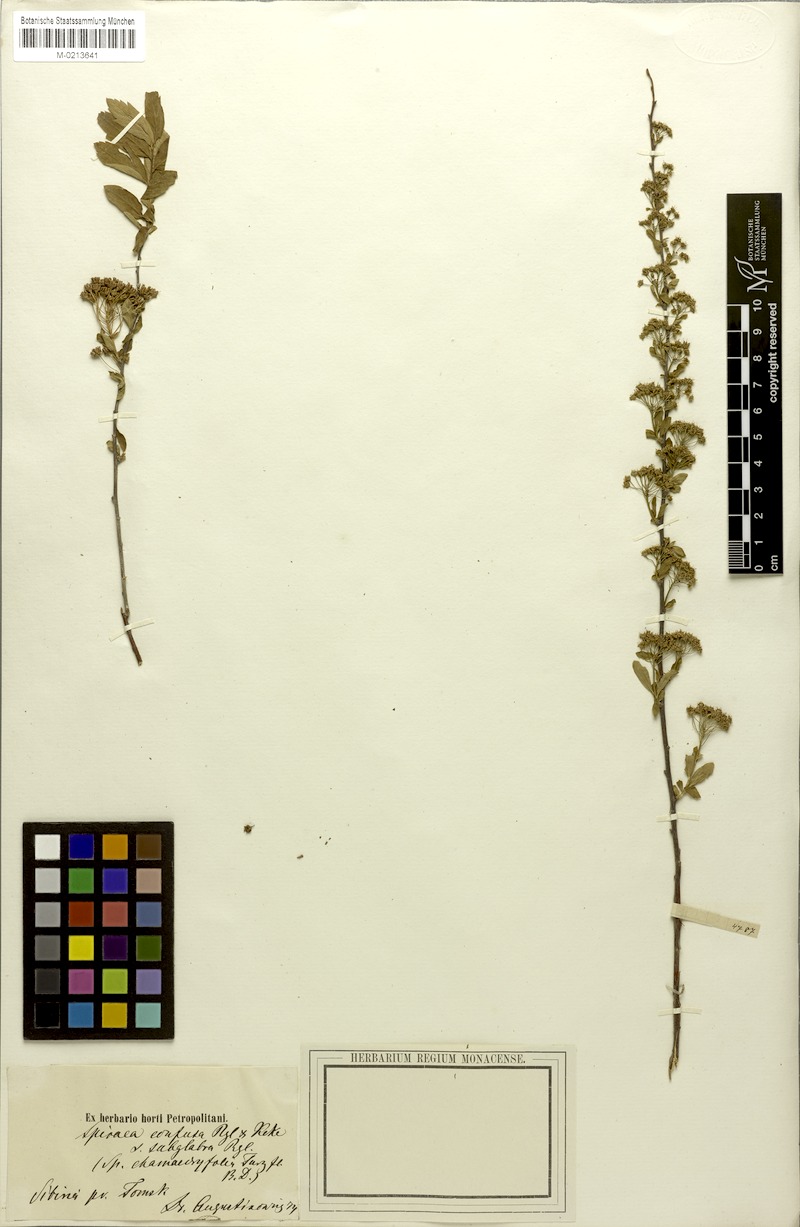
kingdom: Plantae
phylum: Tracheophyta
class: Magnoliopsida
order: Rosales
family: Rosaceae
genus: Spiraea
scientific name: Spiraea media
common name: Russian spiraea
